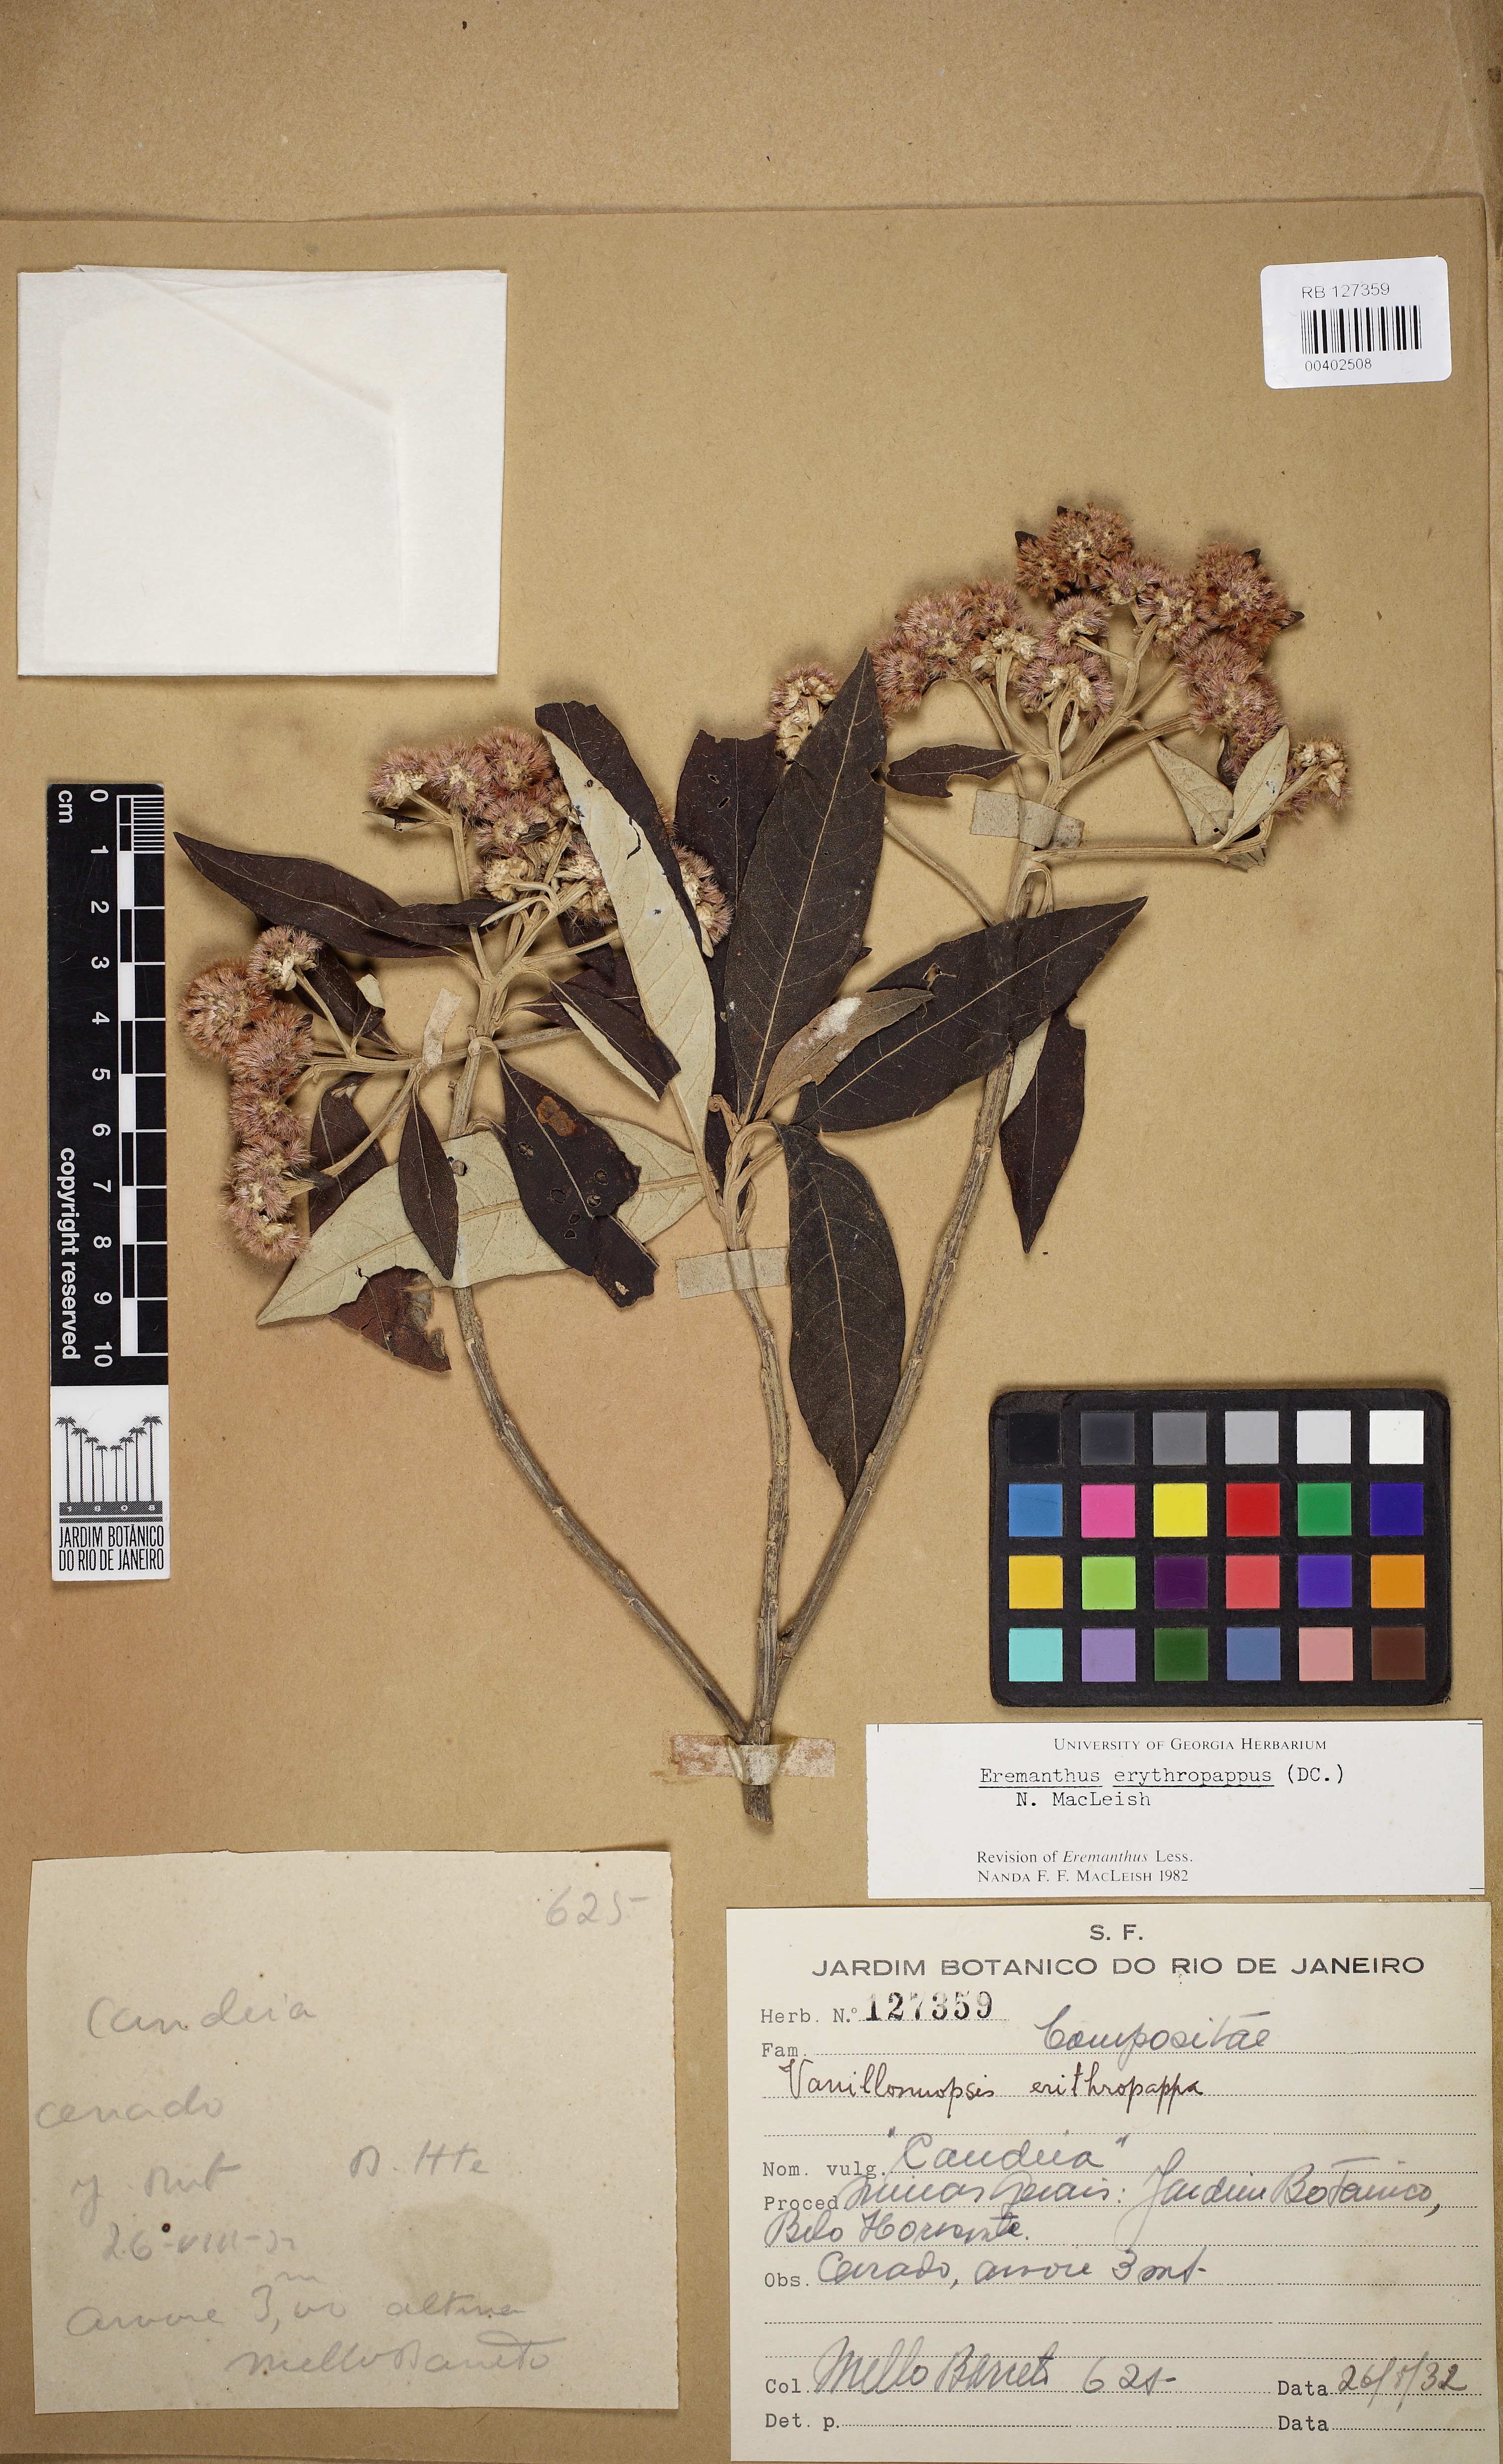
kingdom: Plantae
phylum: Tracheophyta
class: Magnoliopsida
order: Asterales
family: Asteraceae
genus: Eremanthus
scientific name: Eremanthus erythropappus
